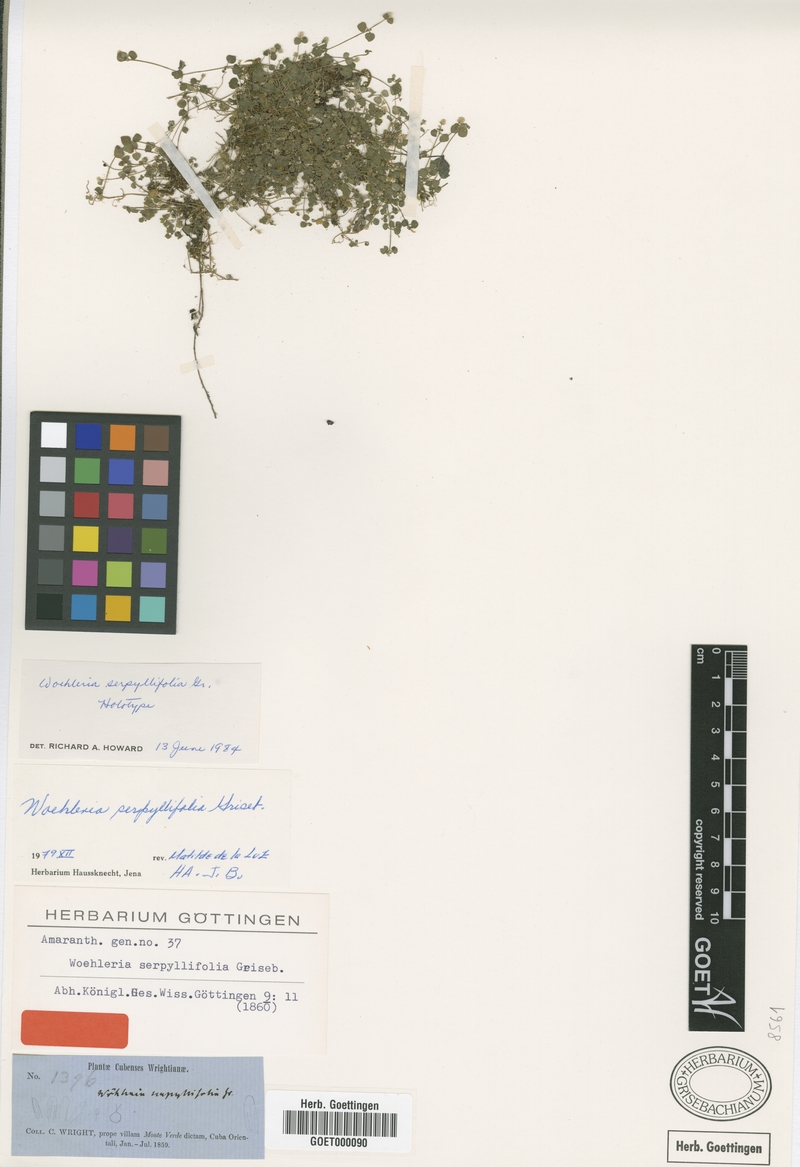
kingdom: Plantae
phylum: Tracheophyta
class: Magnoliopsida
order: Caryophyllales
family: Amaranthaceae
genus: Iresine
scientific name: Iresine cubensis
